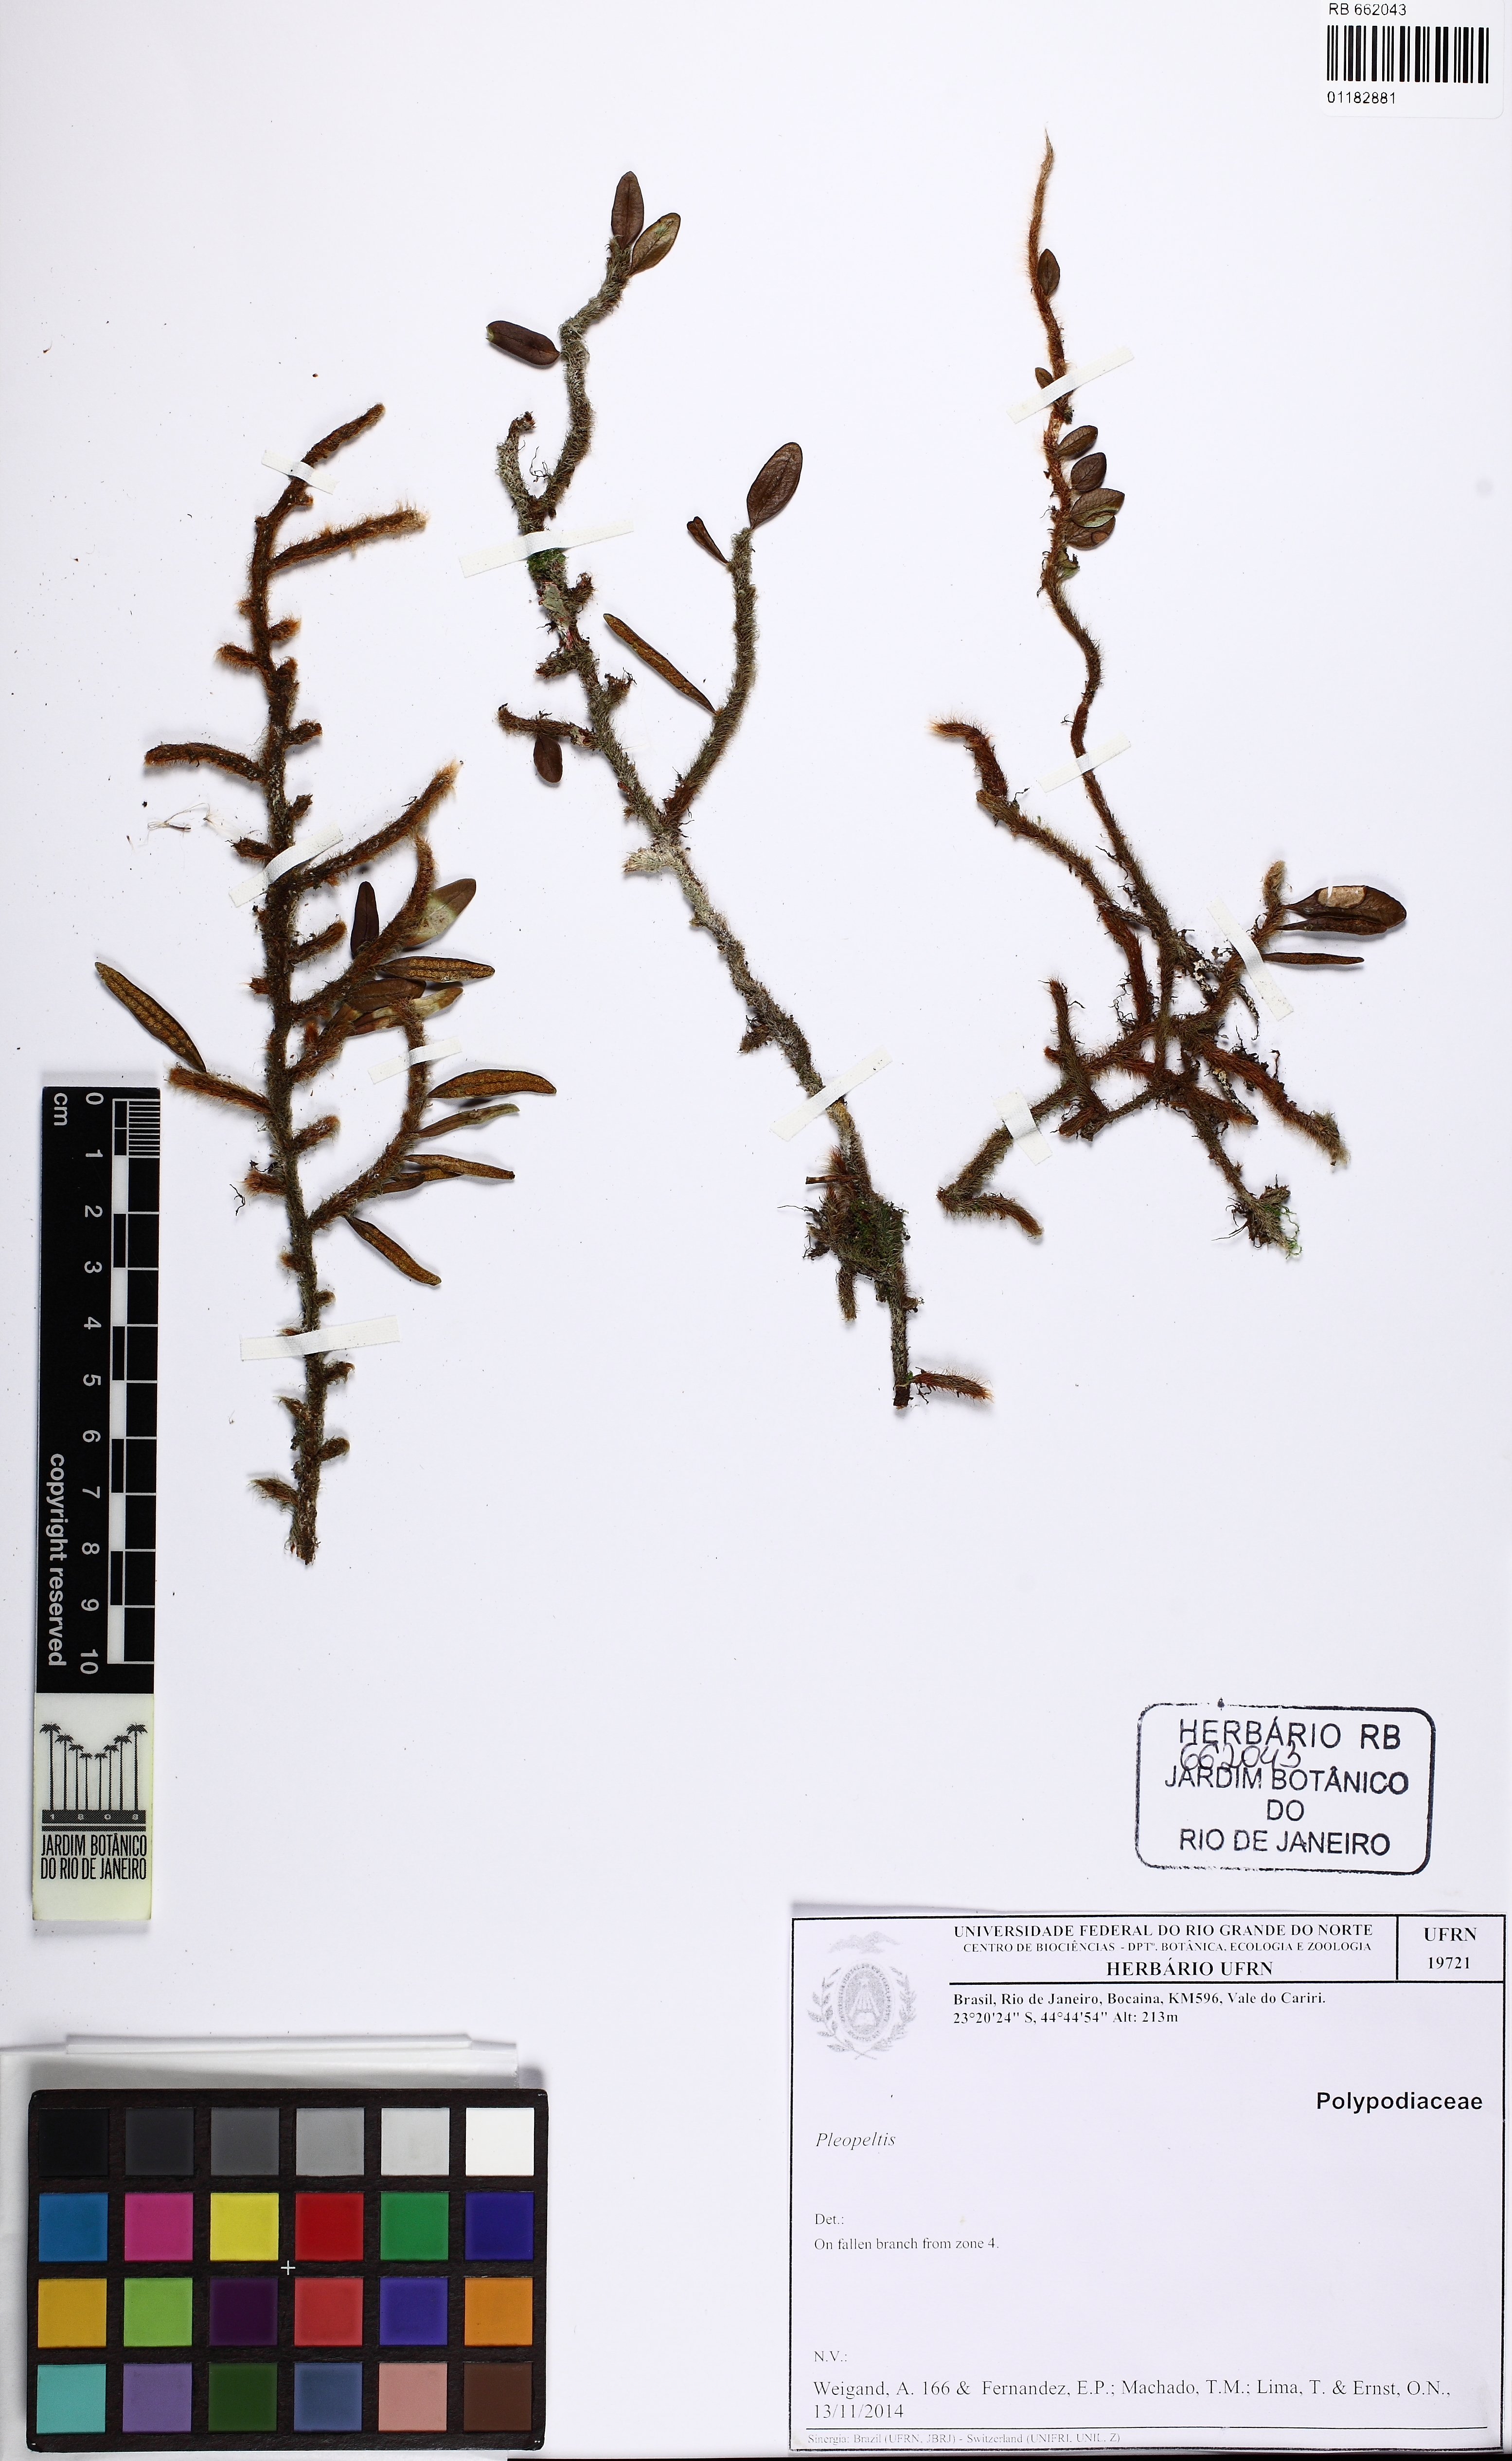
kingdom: Plantae
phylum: Tracheophyta
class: Polypodiopsida
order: Polypodiales
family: Polypodiaceae
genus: Microgramma
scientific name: Microgramma vaccinifolia
